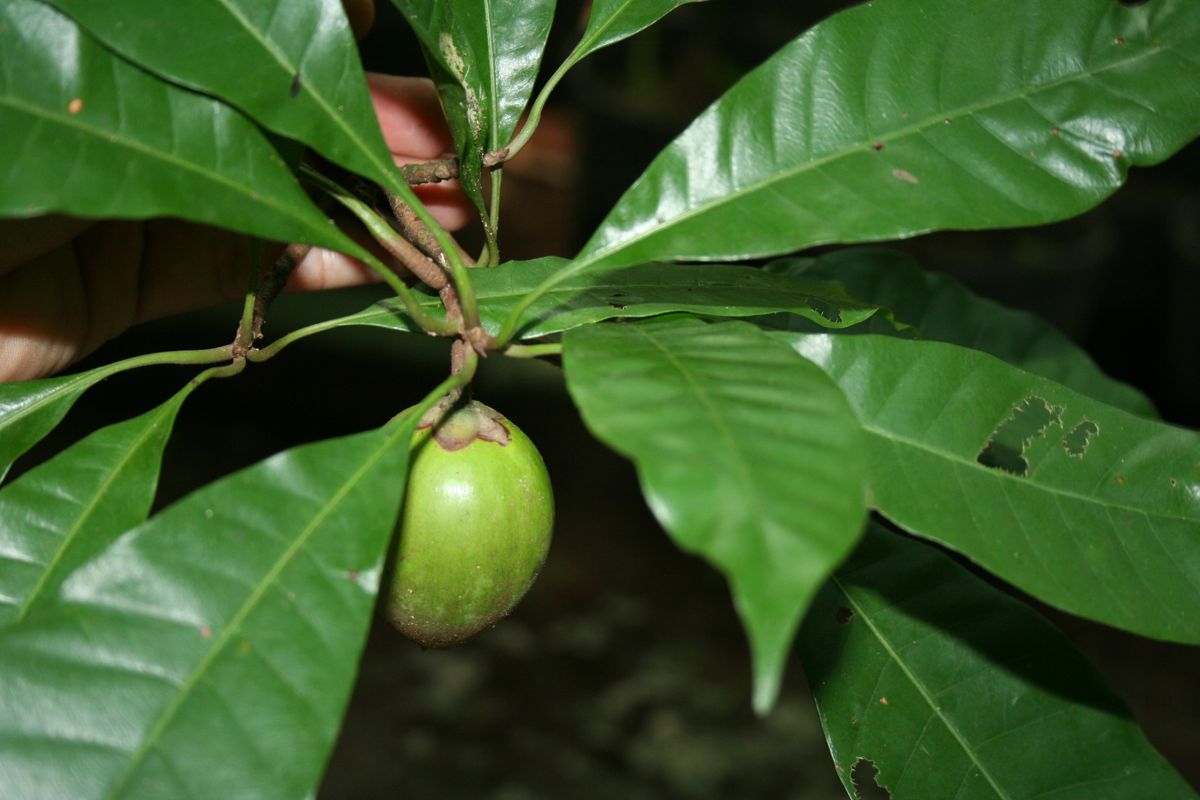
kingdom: Plantae
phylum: Tracheophyta
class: Magnoliopsida
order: Ericales
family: Sapotaceae
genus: Pouteria
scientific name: Pouteria campechiana
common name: Canistel
